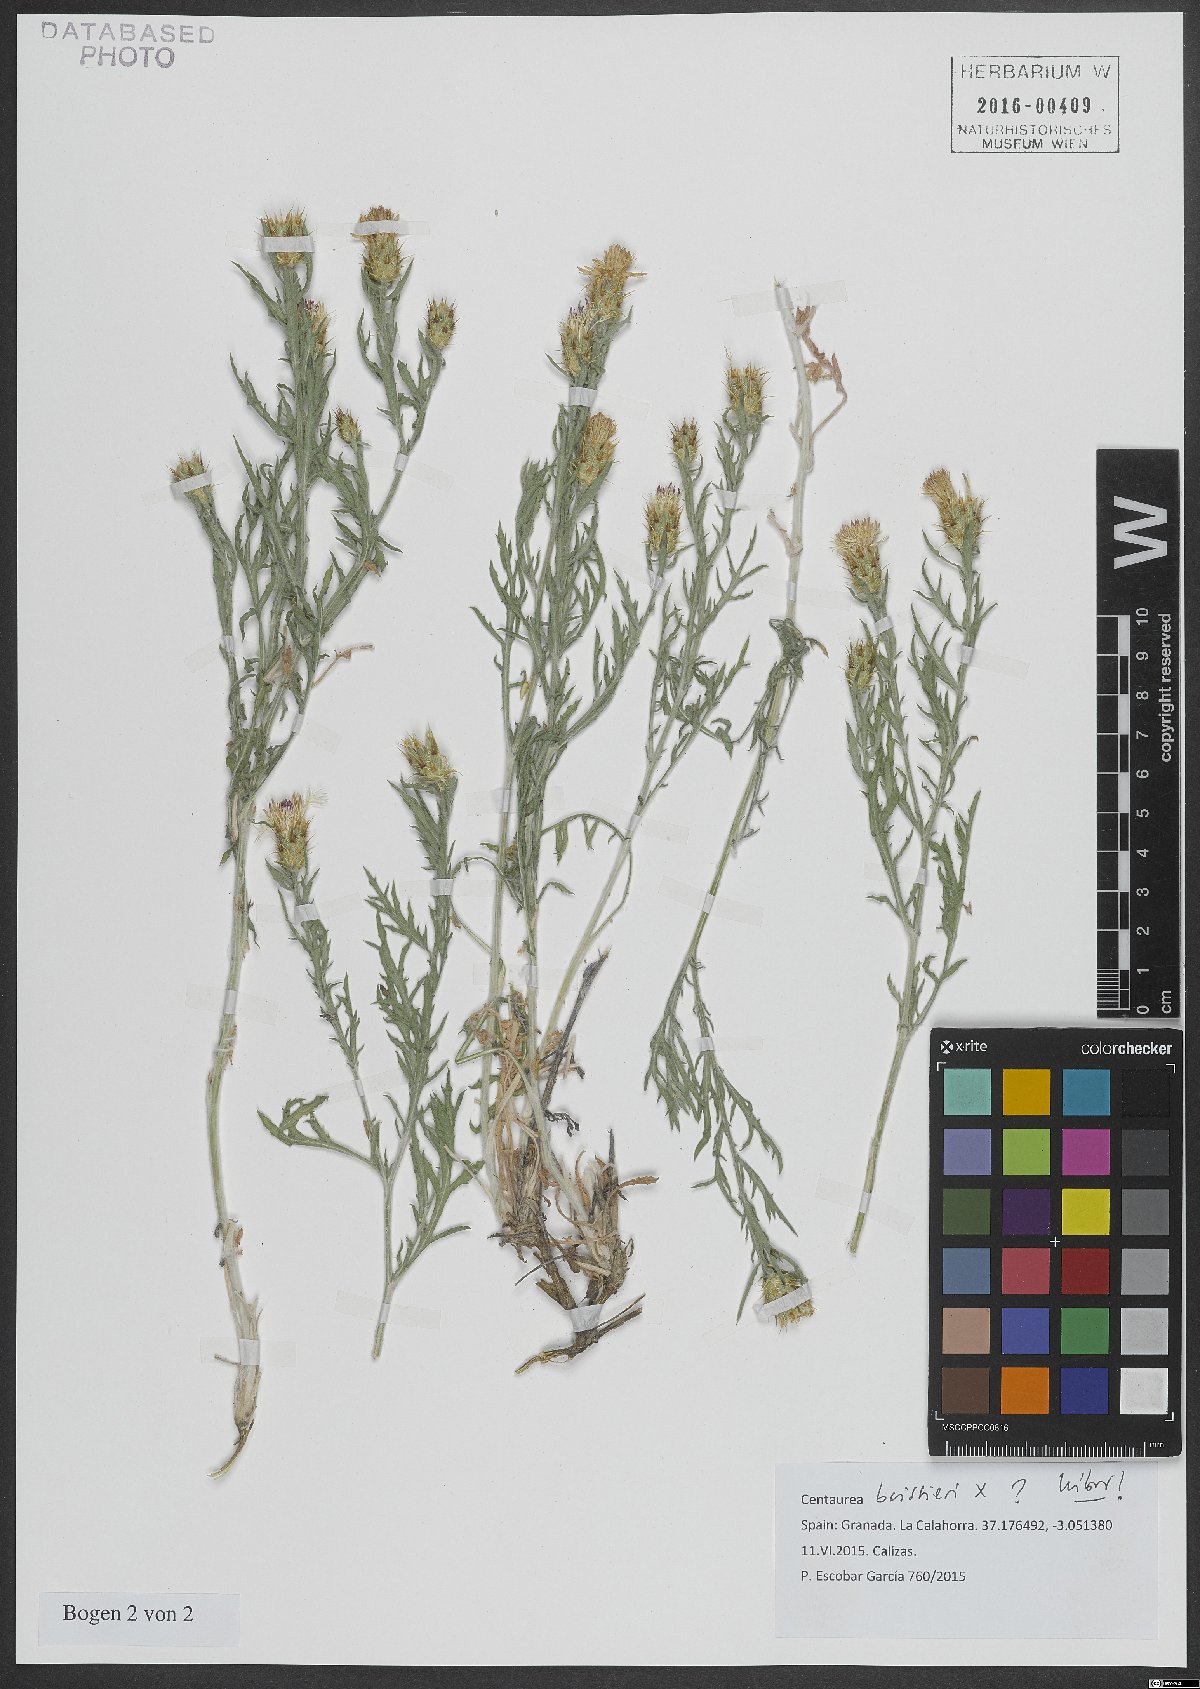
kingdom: Plantae
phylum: Tracheophyta
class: Magnoliopsida
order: Asterales
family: Asteraceae
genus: Centaurea
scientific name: Centaurea boissieri
